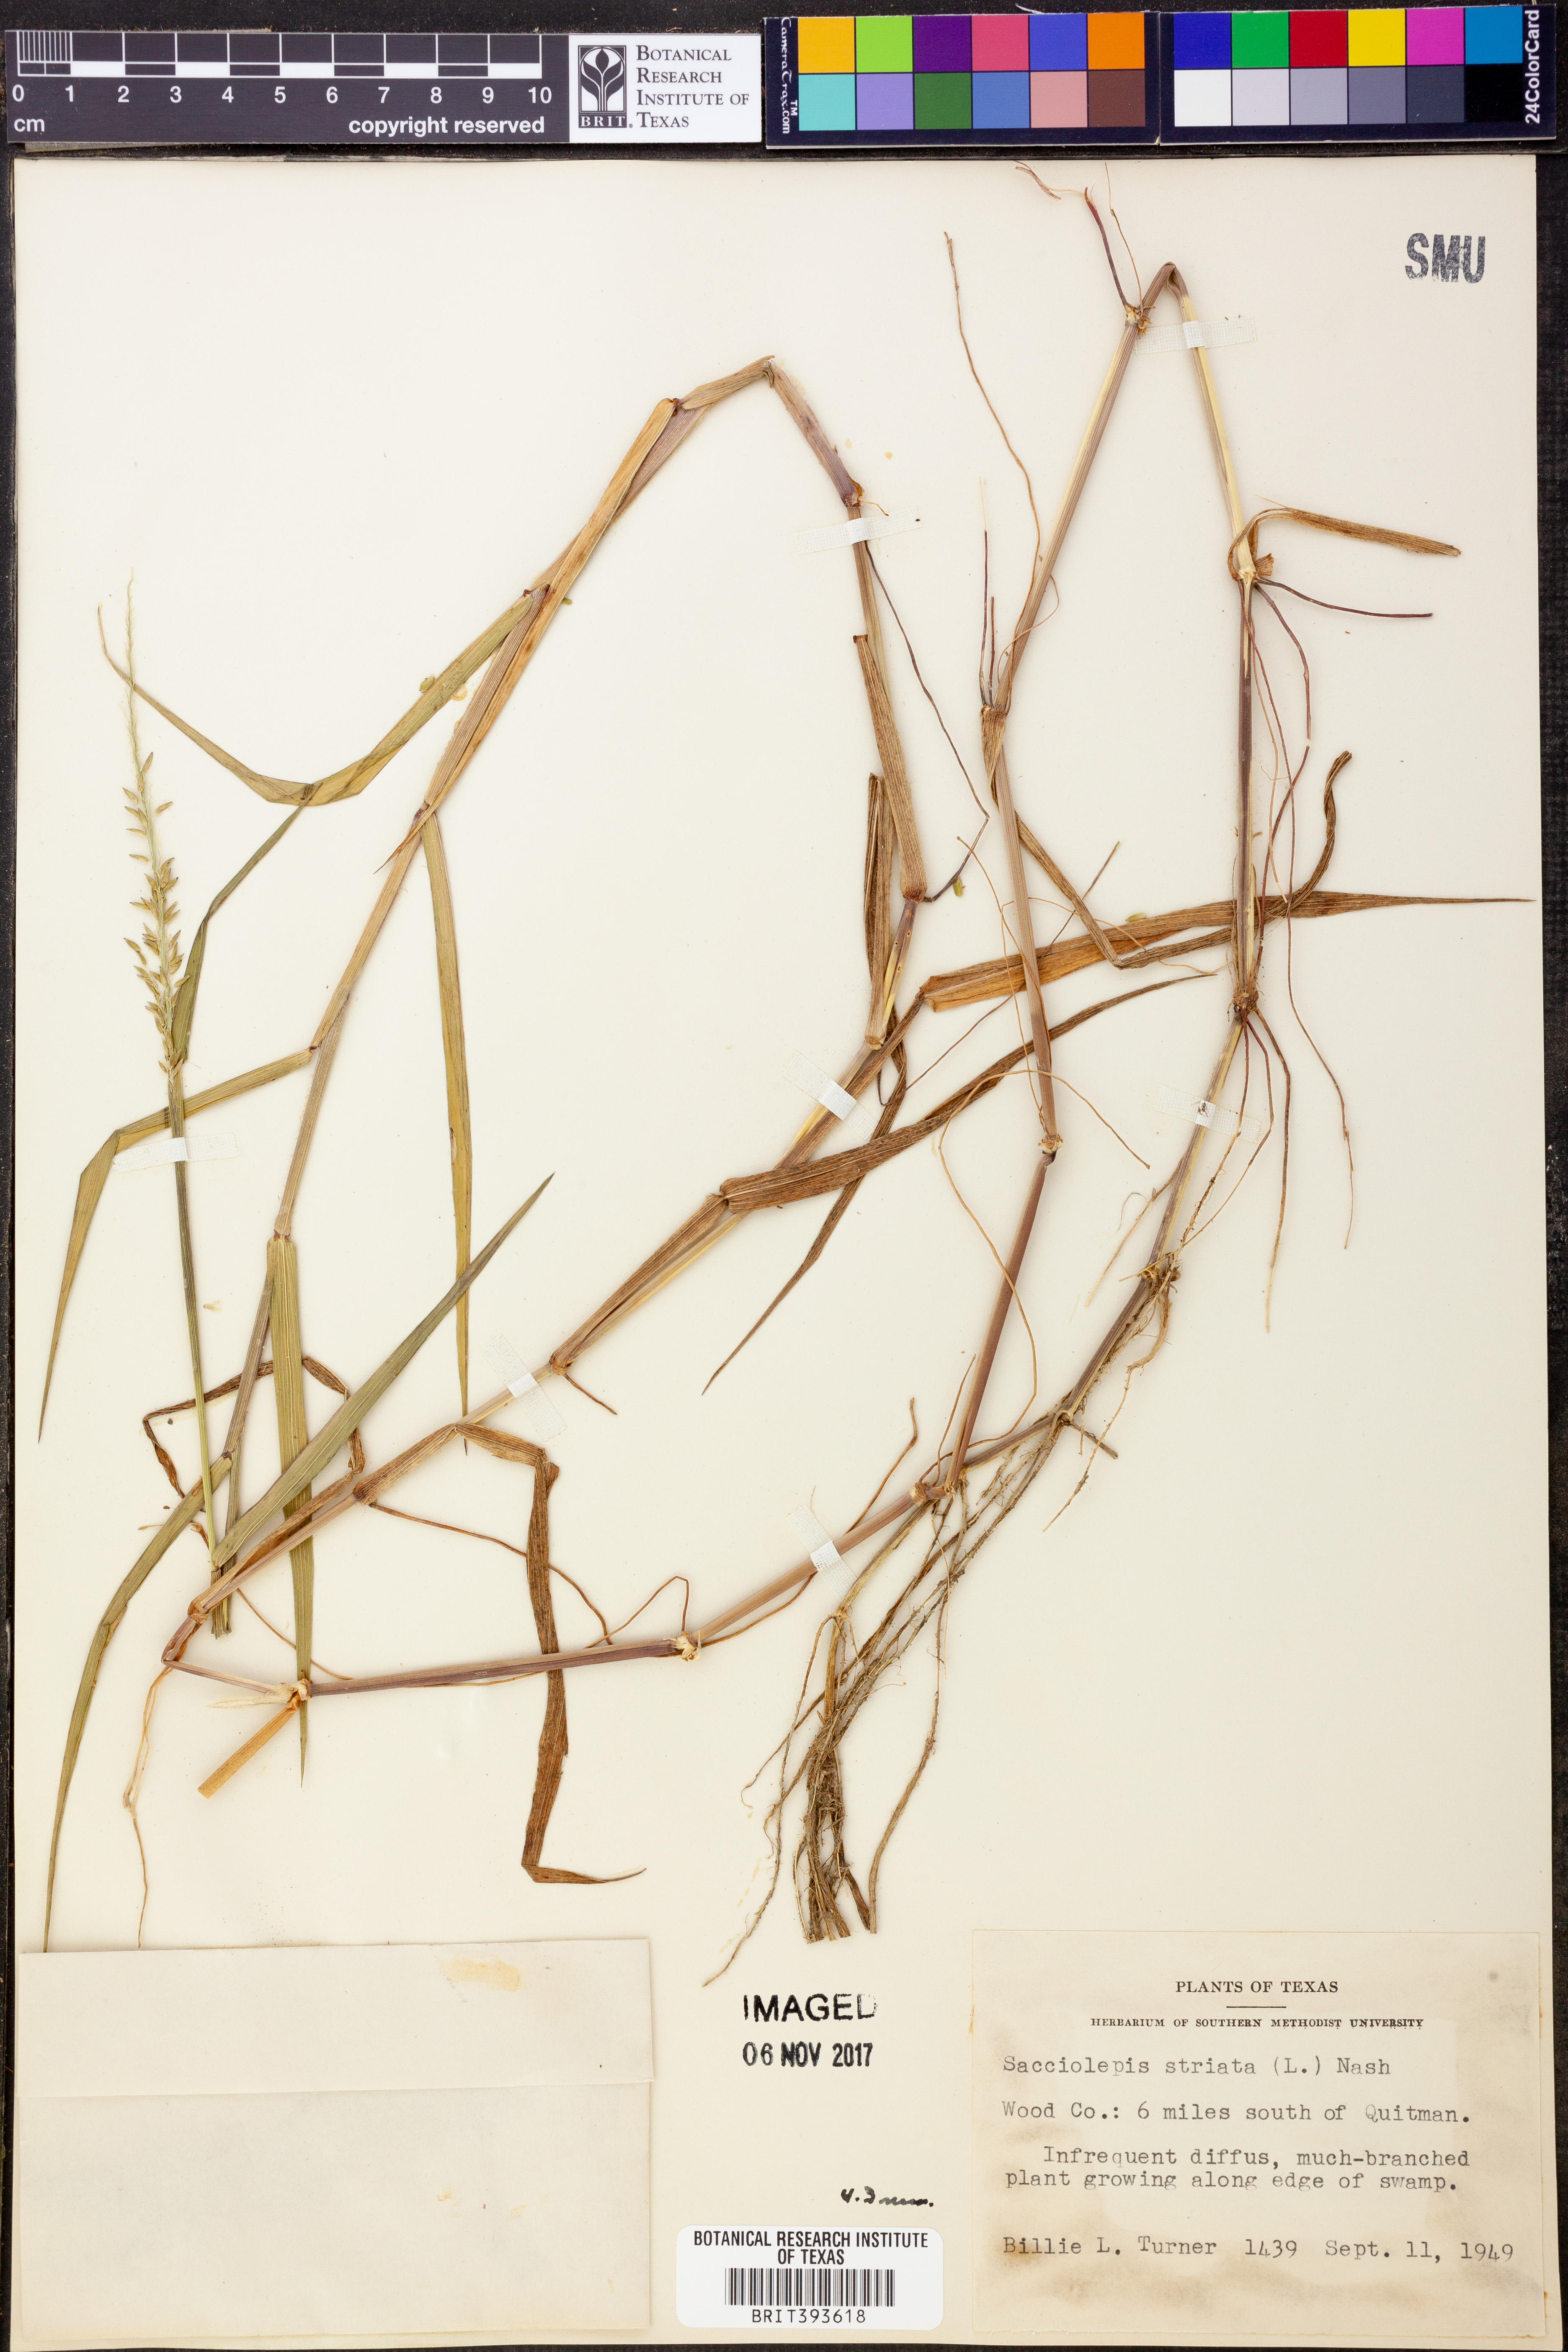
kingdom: Plantae
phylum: Tracheophyta
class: Liliopsida
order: Poales
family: Poaceae
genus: Sacciolepis
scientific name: Sacciolepis striata
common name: American cupscale
